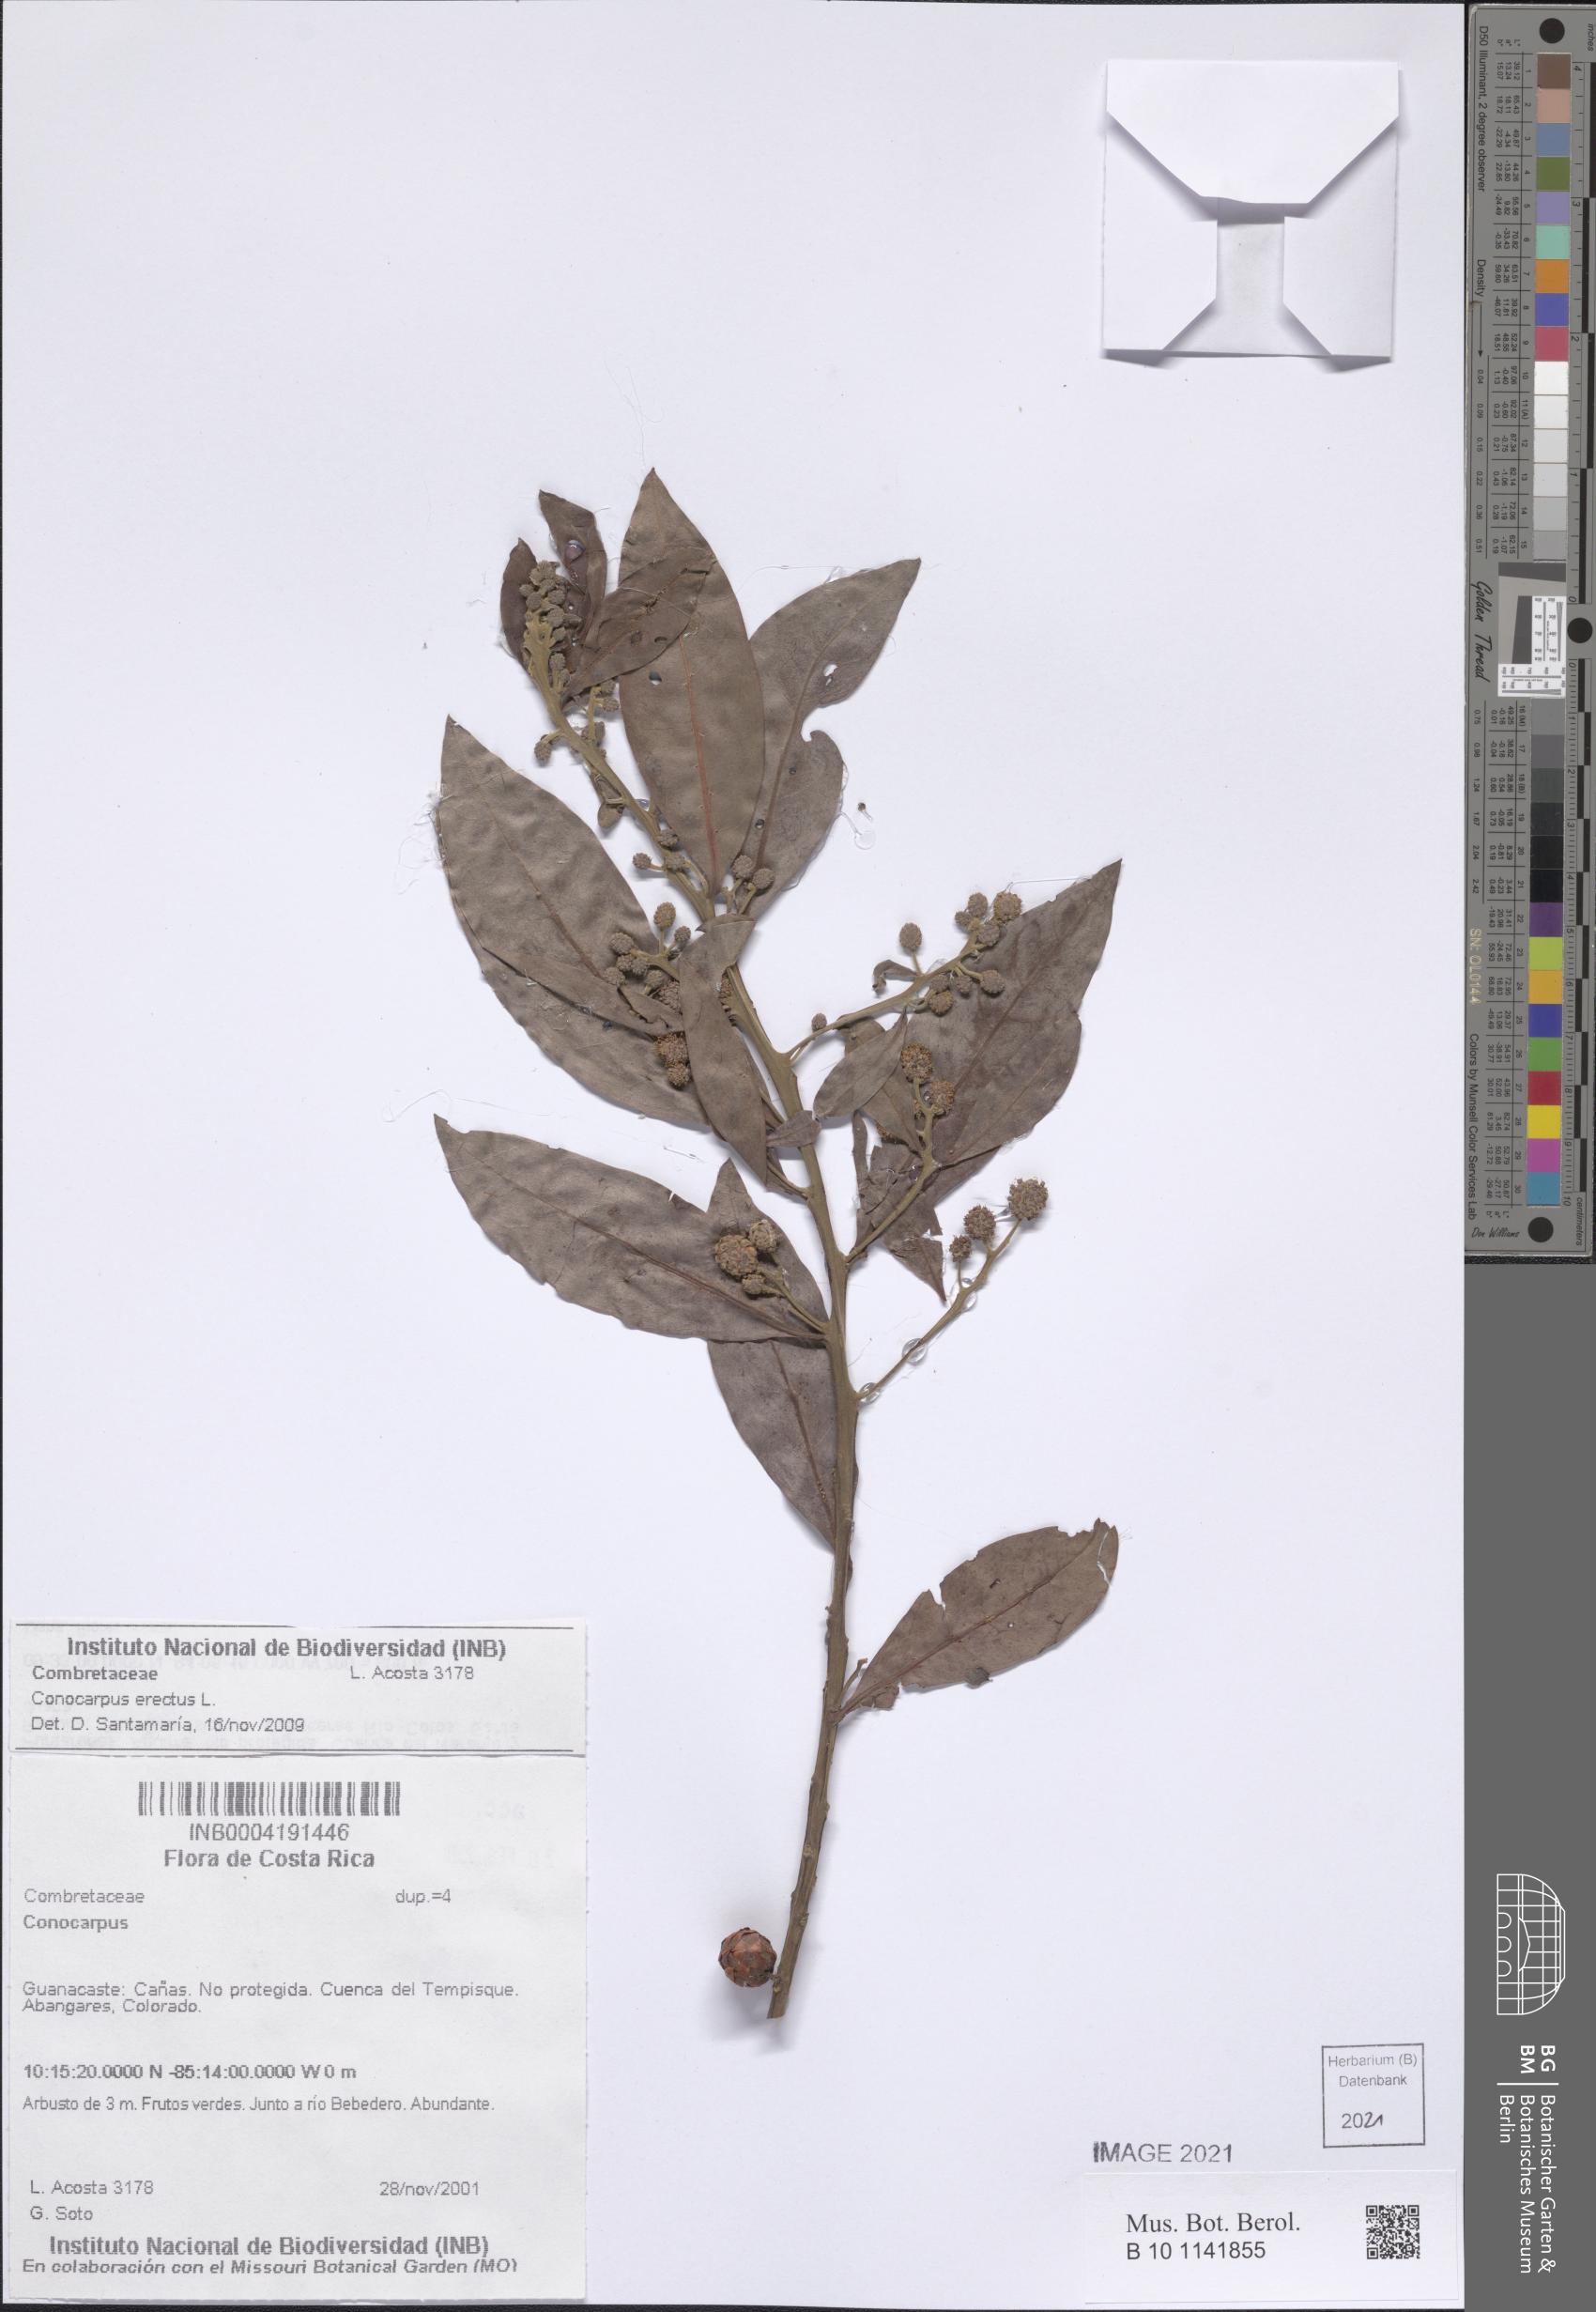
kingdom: Plantae
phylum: Tracheophyta
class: Magnoliopsida
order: Myrtales
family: Combretaceae
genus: Conocarpus
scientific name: Conocarpus erectus
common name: Button mangrove
